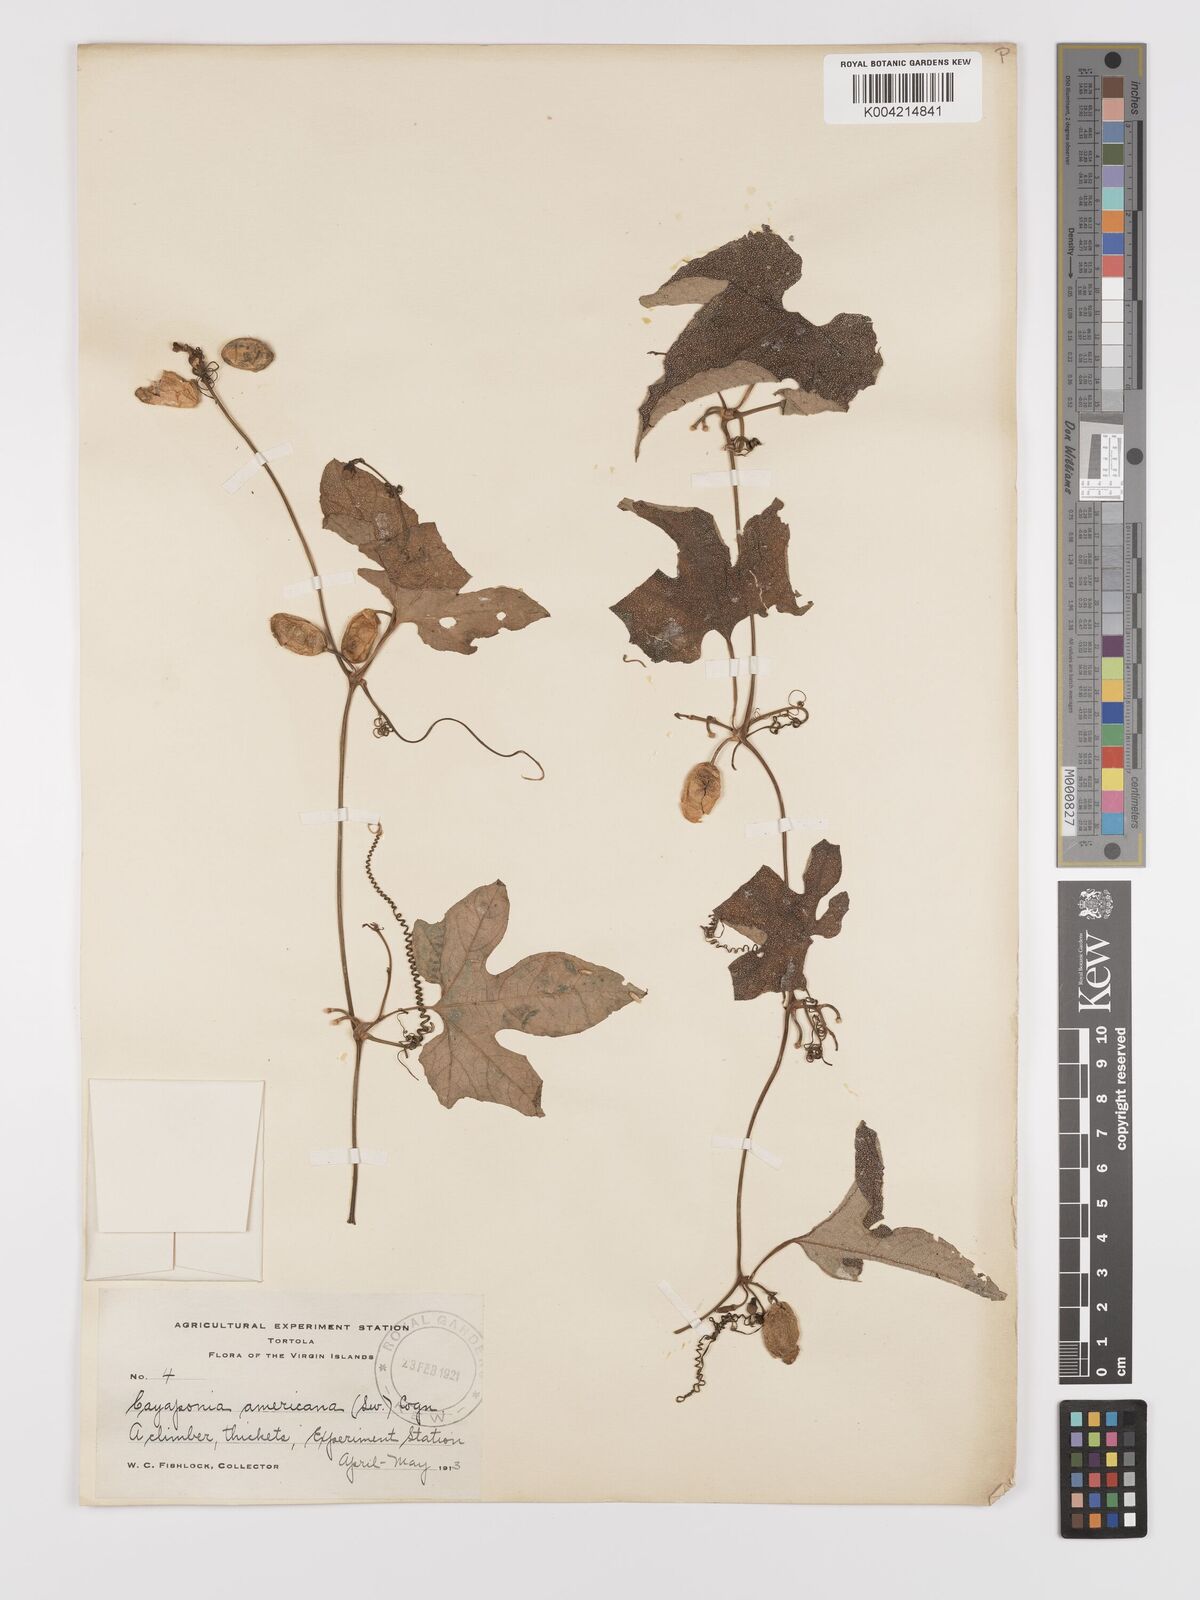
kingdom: Plantae
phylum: Tracheophyta
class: Magnoliopsida
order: Cucurbitales
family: Cucurbitaceae
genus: Cayaponia
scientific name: Cayaponia americana
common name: American melonleaf
